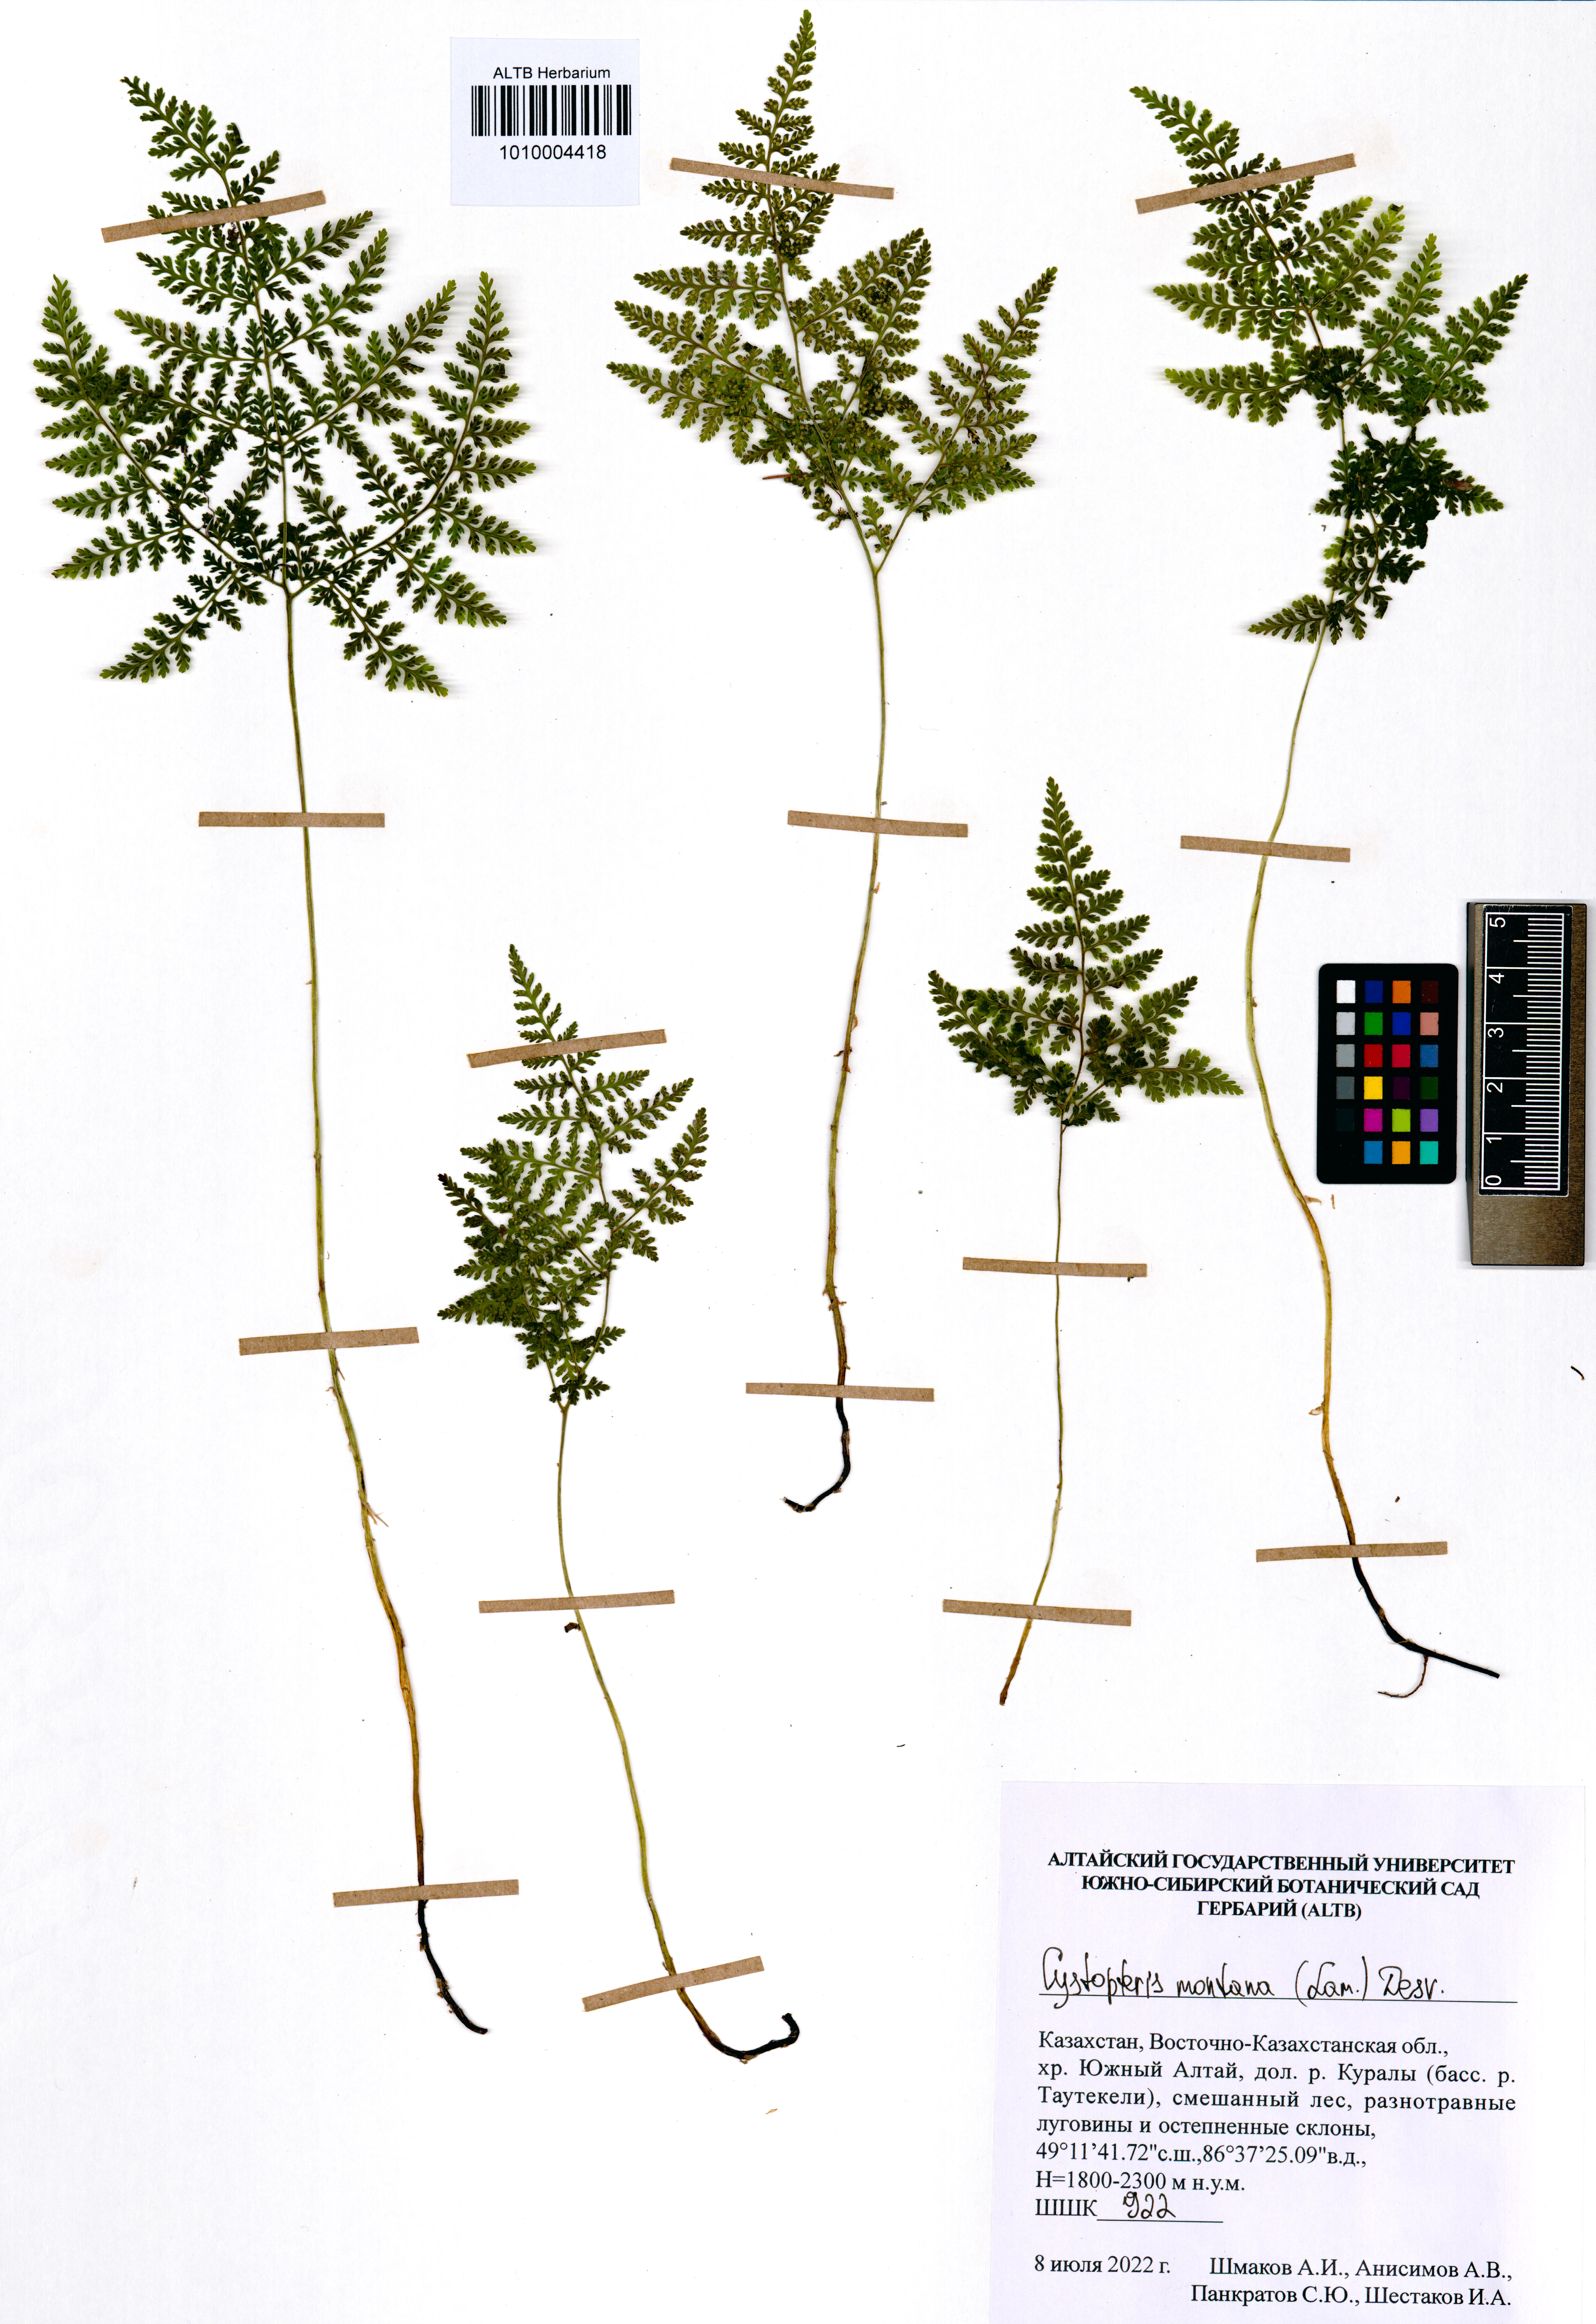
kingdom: Plantae
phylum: Tracheophyta
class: Polypodiopsida
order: Polypodiales
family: Cystopteridaceae
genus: Cystopteris
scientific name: Cystopteris montana
